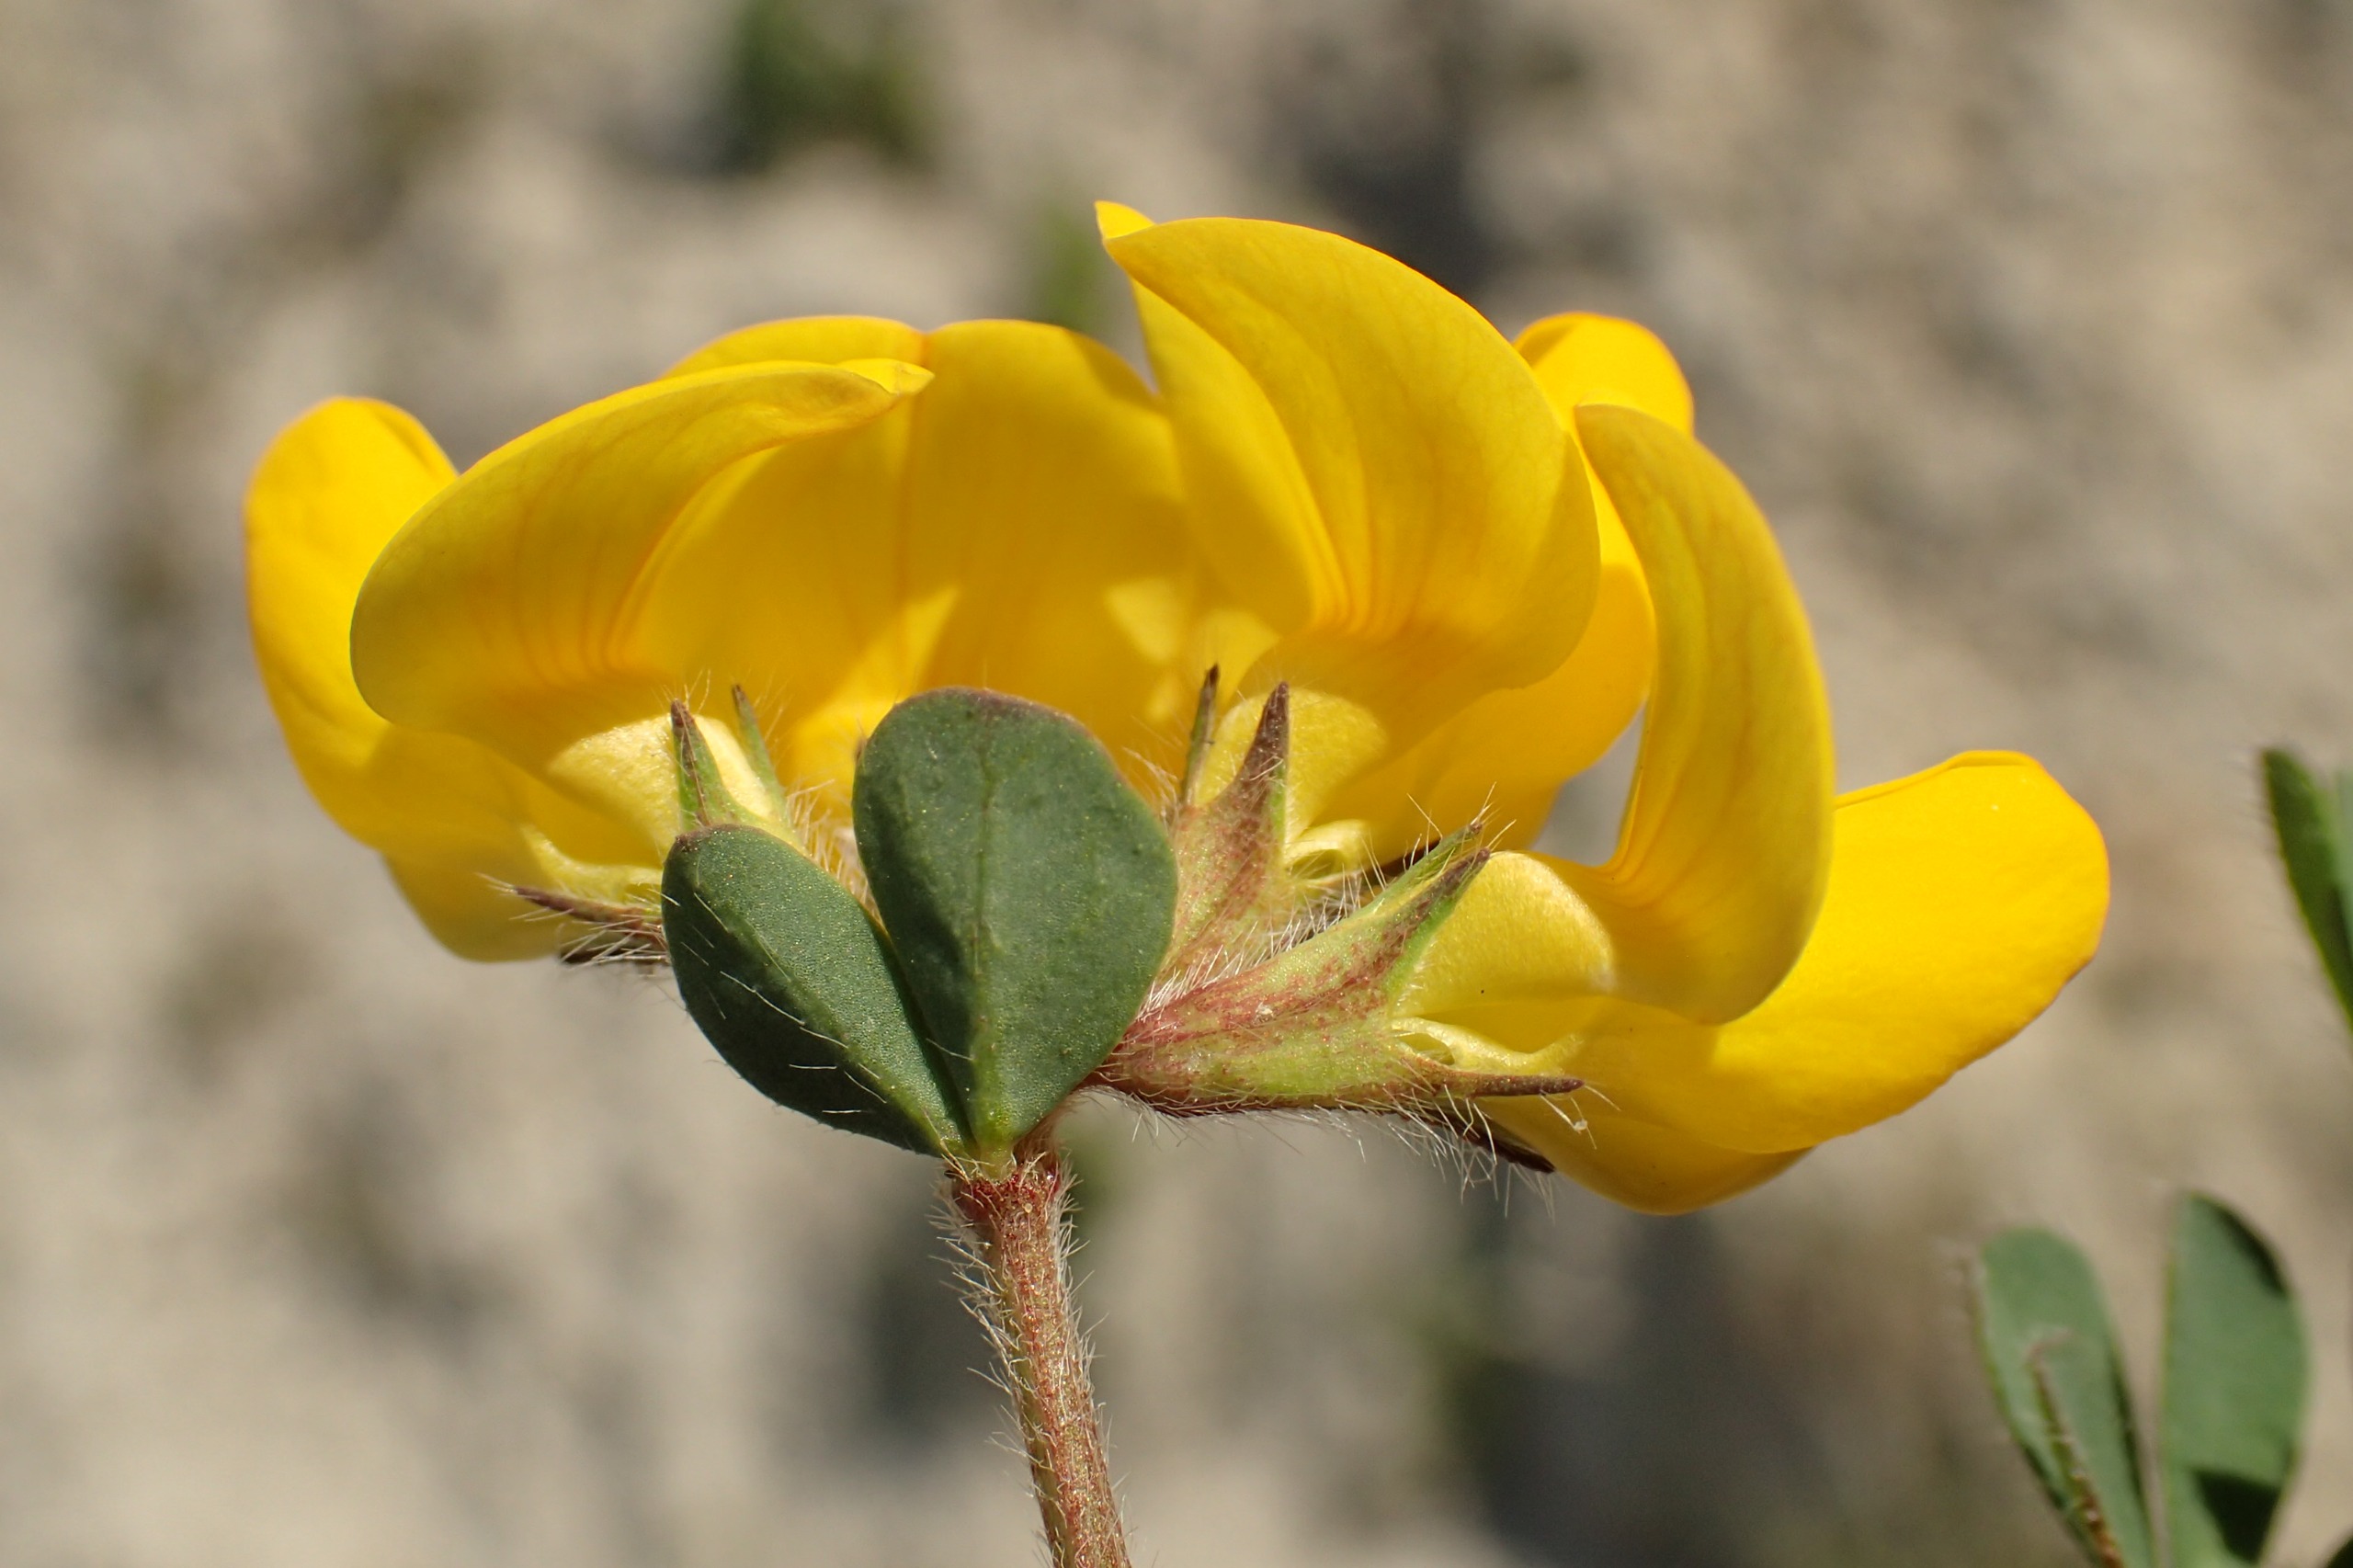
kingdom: Plantae
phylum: Tracheophyta
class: Magnoliopsida
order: Fabales
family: Fabaceae
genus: Lotus
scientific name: Lotus corniculatus
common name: Almindelig kællingetand
